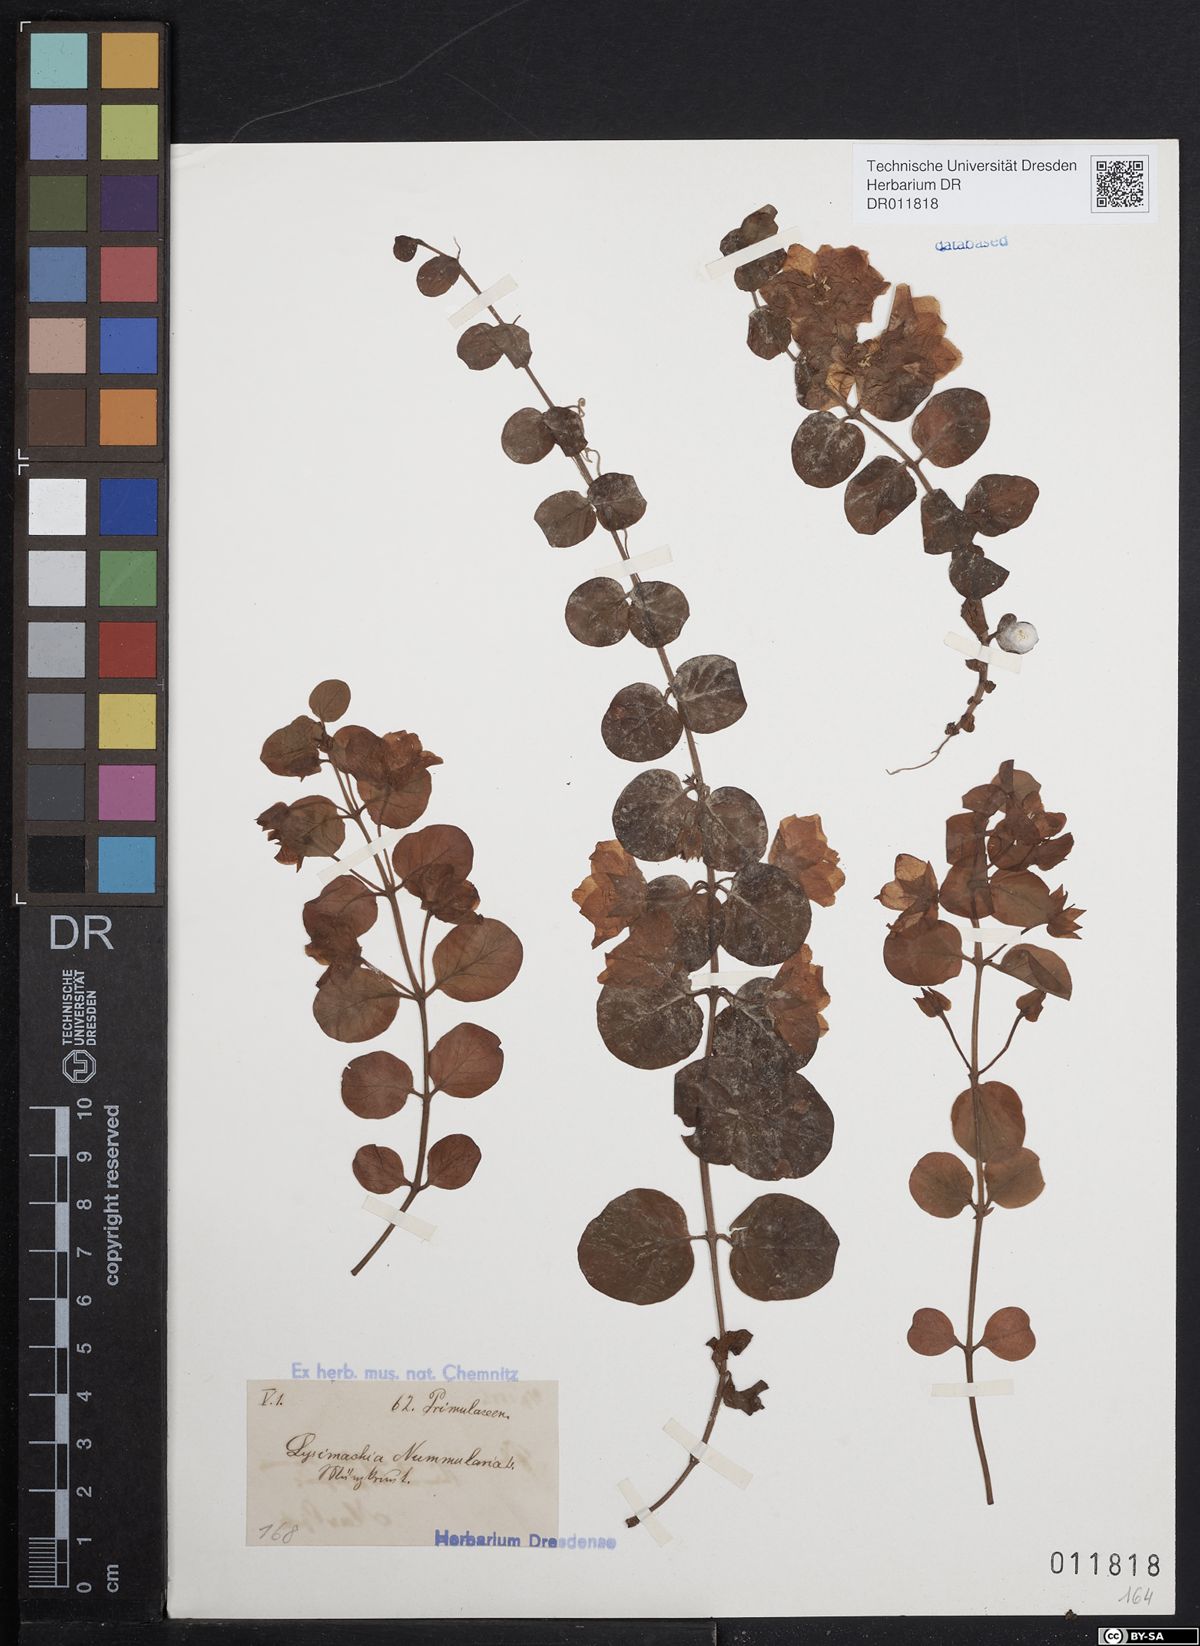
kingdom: Plantae
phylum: Tracheophyta
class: Magnoliopsida
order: Ericales
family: Primulaceae
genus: Lysimachia
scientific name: Lysimachia nummularia
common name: Moneywort
